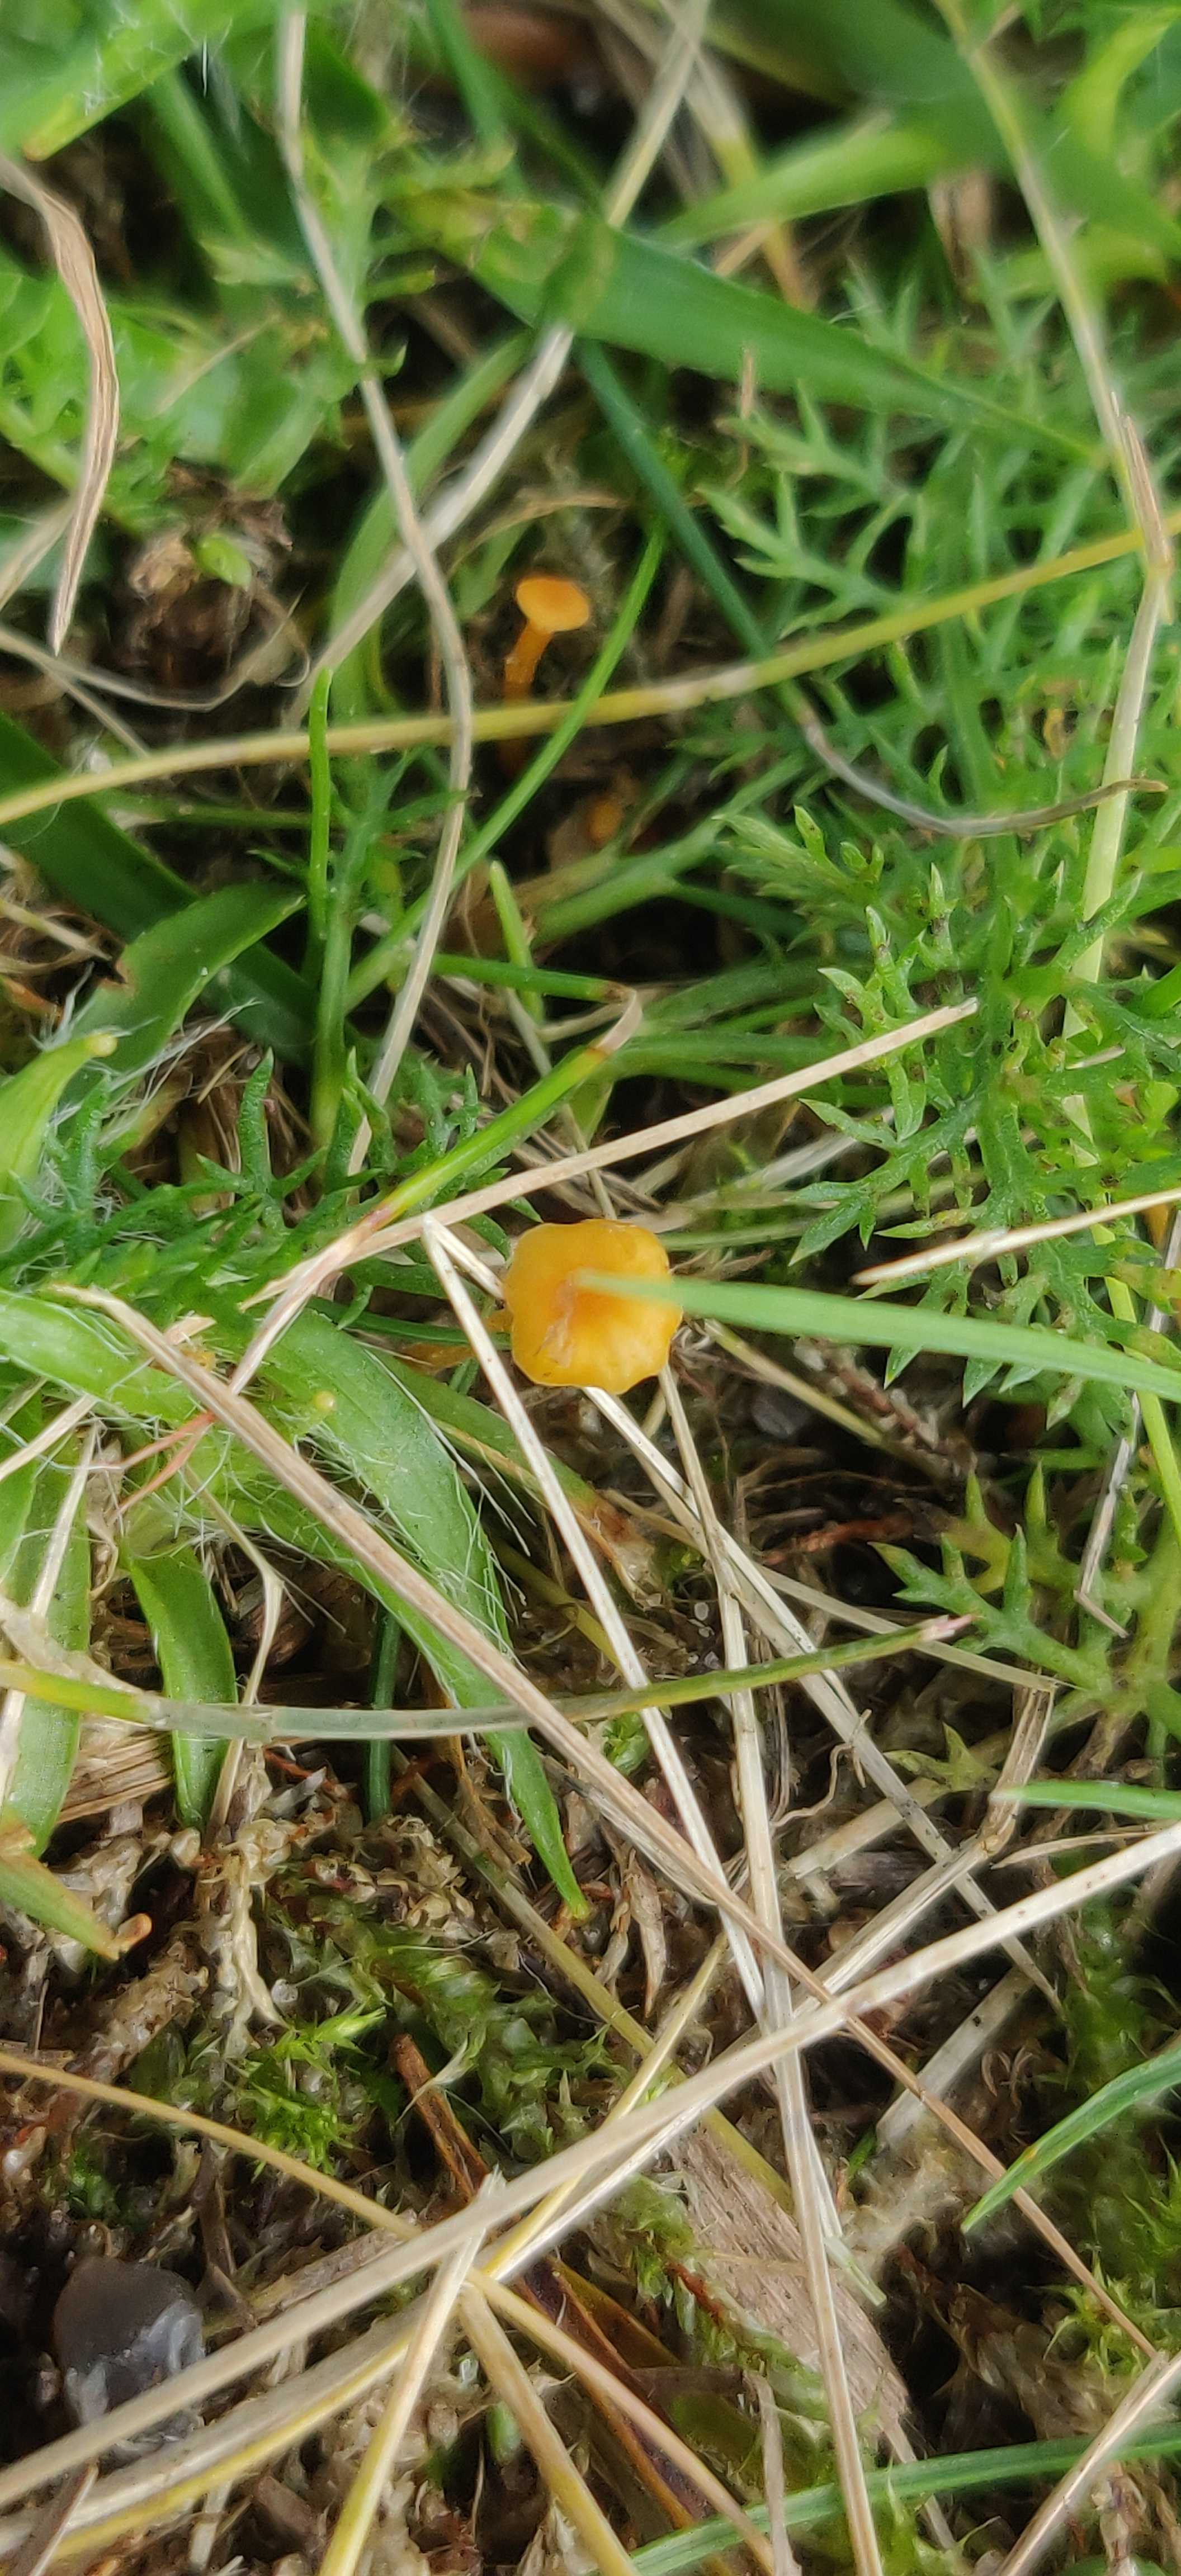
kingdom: Fungi
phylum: Basidiomycota
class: Agaricomycetes
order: Hymenochaetales
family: Rickenellaceae
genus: Rickenella
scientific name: Rickenella fibula
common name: orange mosnavlehat
